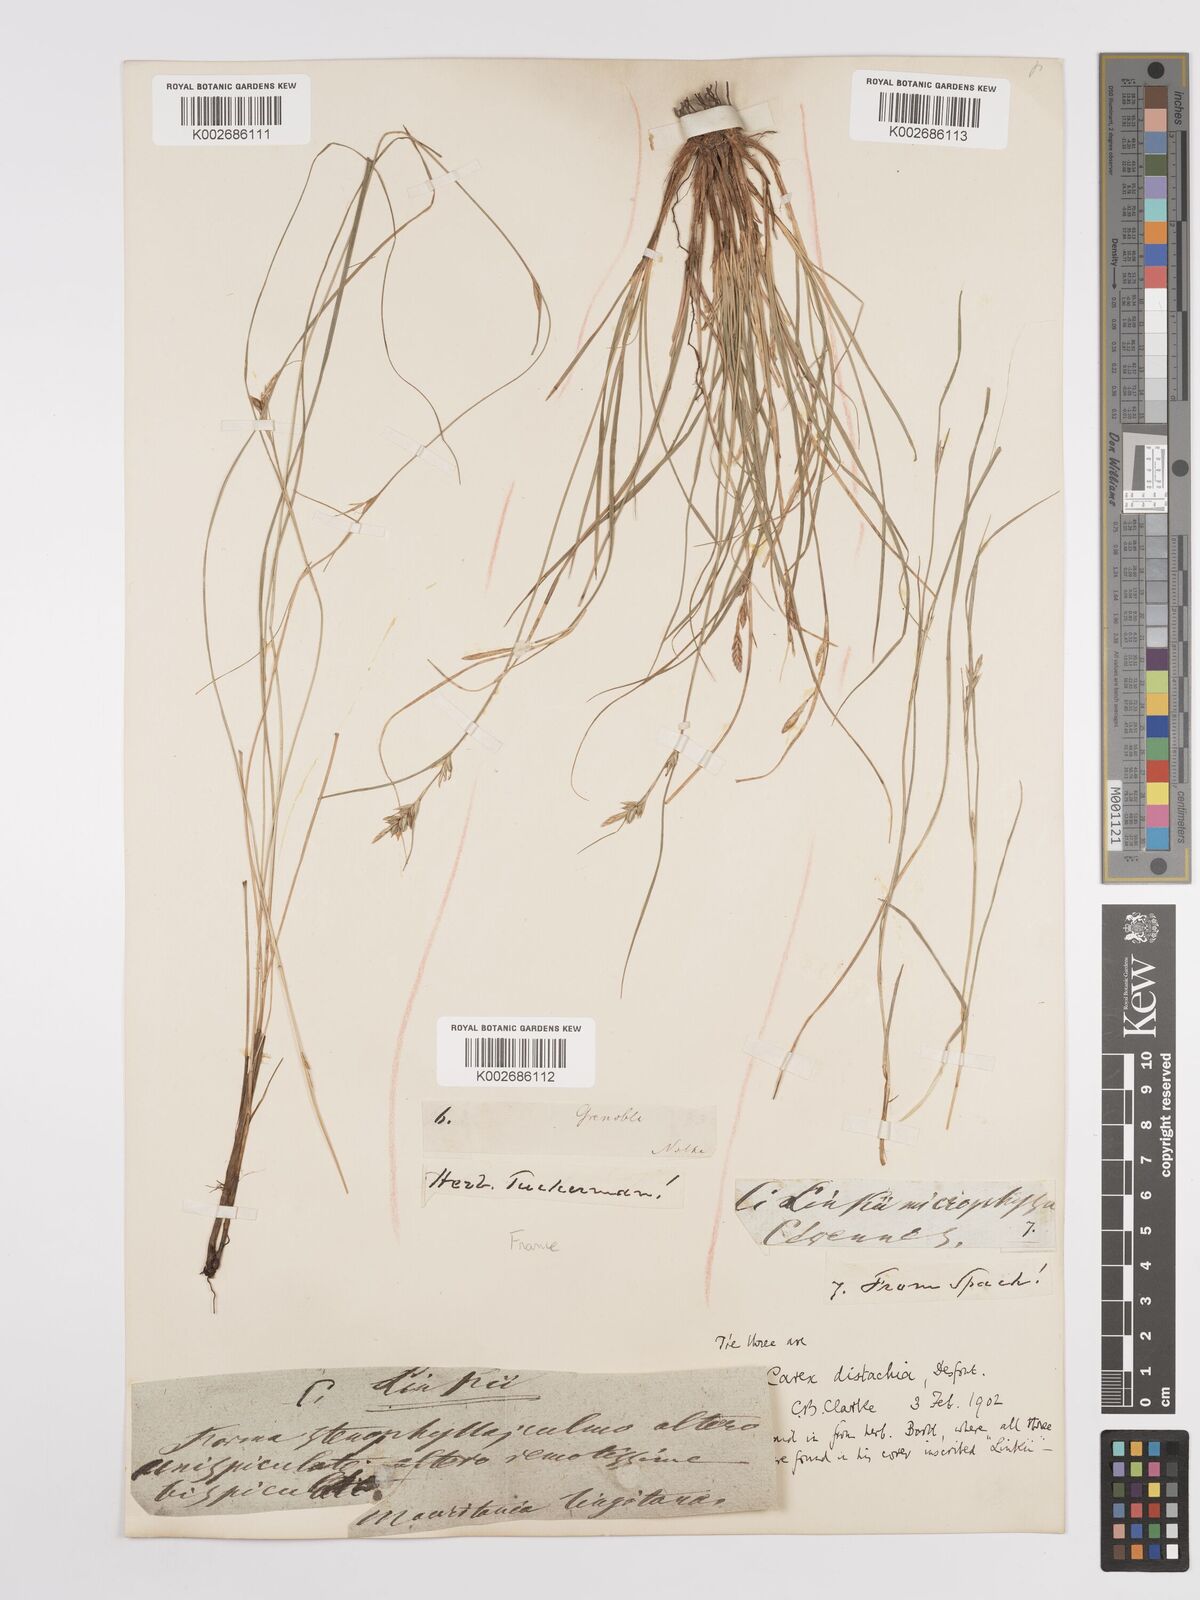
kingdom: Plantae
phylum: Tracheophyta
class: Liliopsida
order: Poales
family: Cyperaceae
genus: Carex
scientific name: Carex distachya
